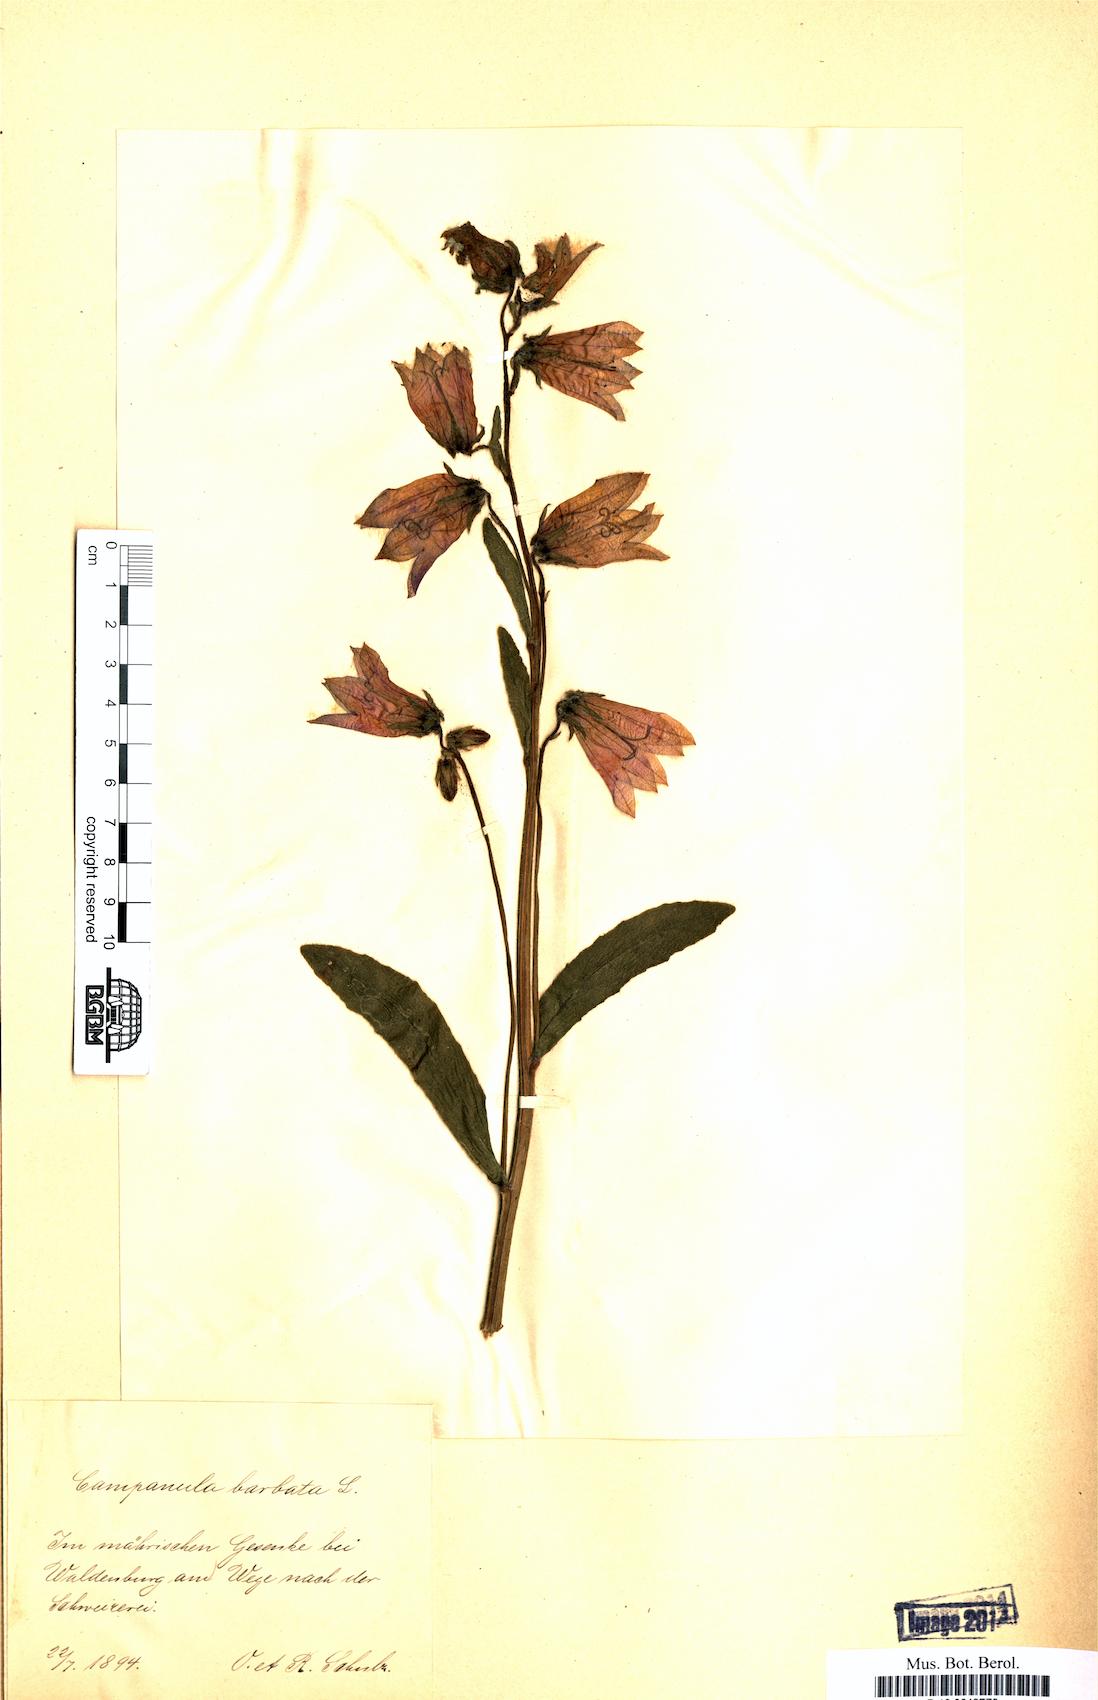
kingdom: Plantae
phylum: Tracheophyta
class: Magnoliopsida
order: Asterales
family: Campanulaceae
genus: Campanula
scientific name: Campanula barbata
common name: Bearded bellflower
